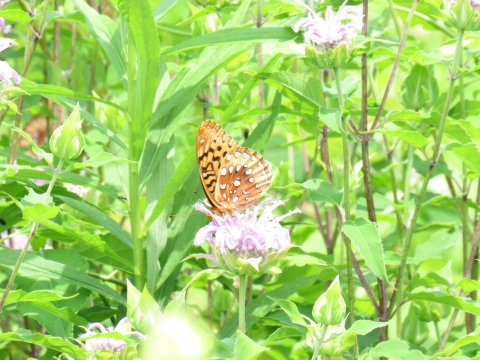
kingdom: Animalia
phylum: Arthropoda
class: Insecta
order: Lepidoptera
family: Nymphalidae
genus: Speyeria
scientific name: Speyeria cybele
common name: Great Spangled Fritillary
